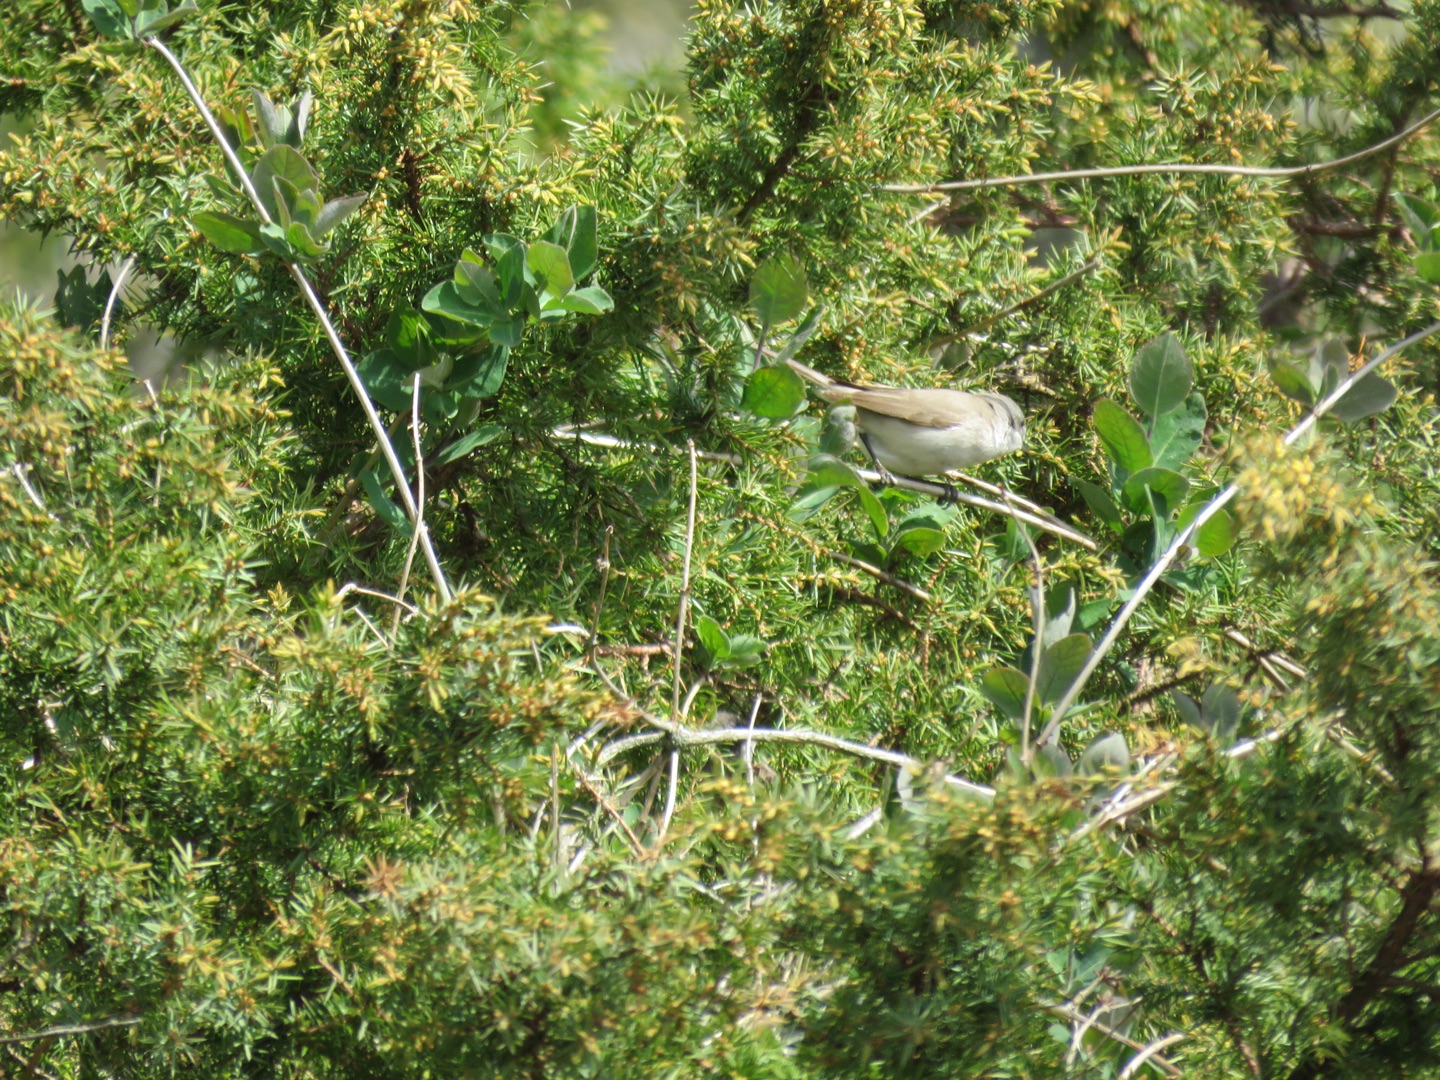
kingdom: Animalia
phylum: Chordata
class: Aves
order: Passeriformes
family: Sylviidae
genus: Sylvia
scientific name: Sylvia curruca
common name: Gærdesanger
